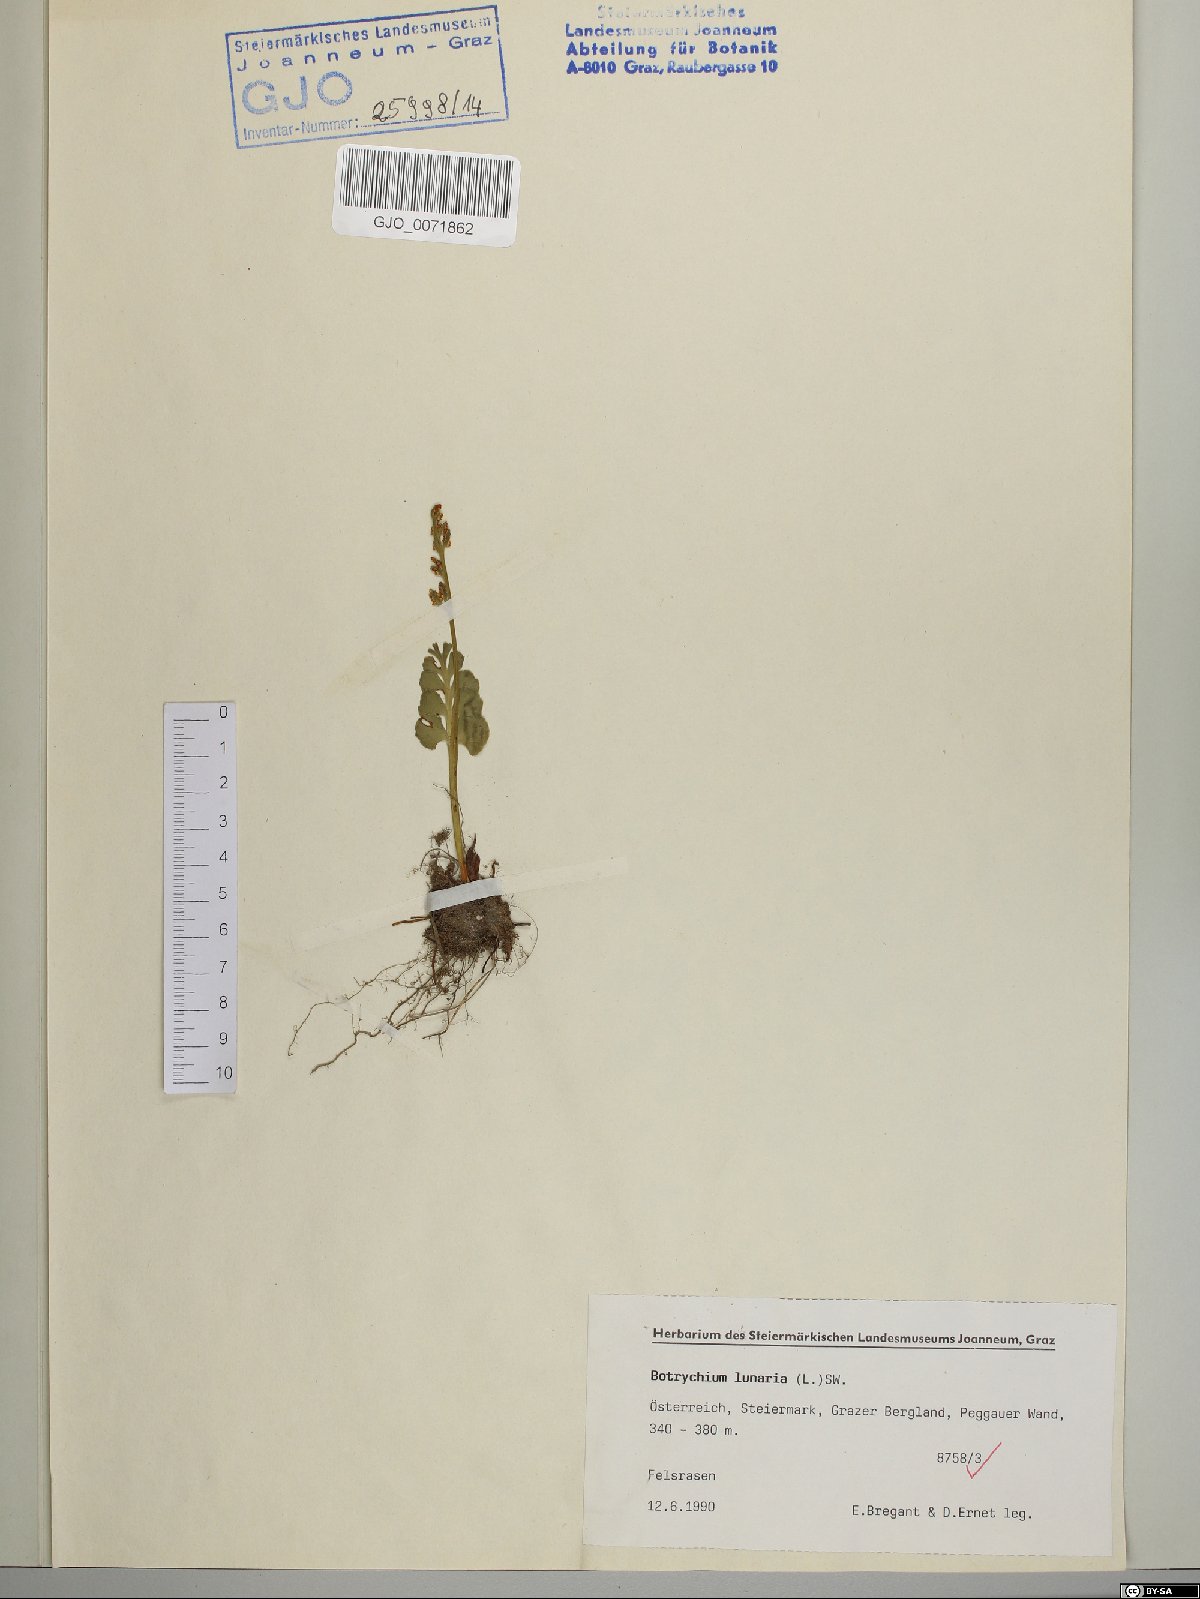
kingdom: Plantae
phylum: Tracheophyta
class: Polypodiopsida
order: Ophioglossales
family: Ophioglossaceae
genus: Botrychium
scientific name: Botrychium lunaria
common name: Moonwort
